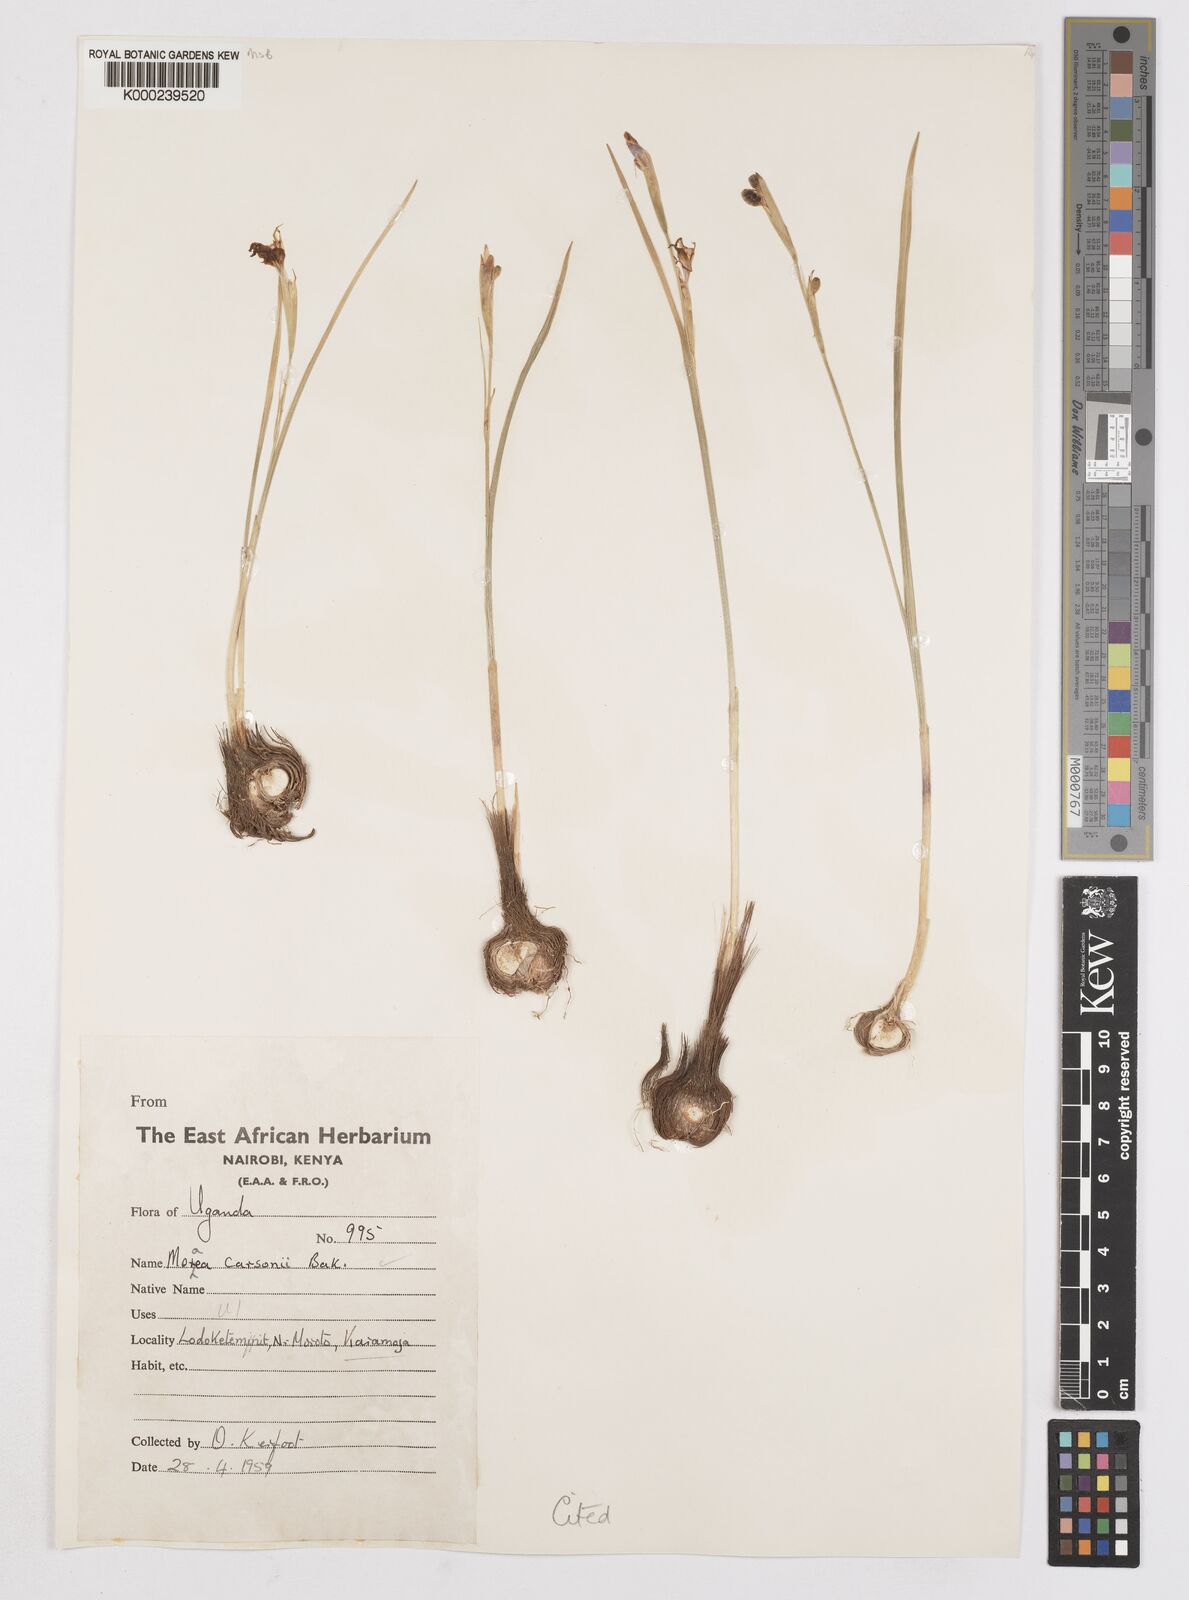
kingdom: Plantae
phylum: Tracheophyta
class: Liliopsida
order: Asparagales
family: Iridaceae
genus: Moraea
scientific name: Moraea
